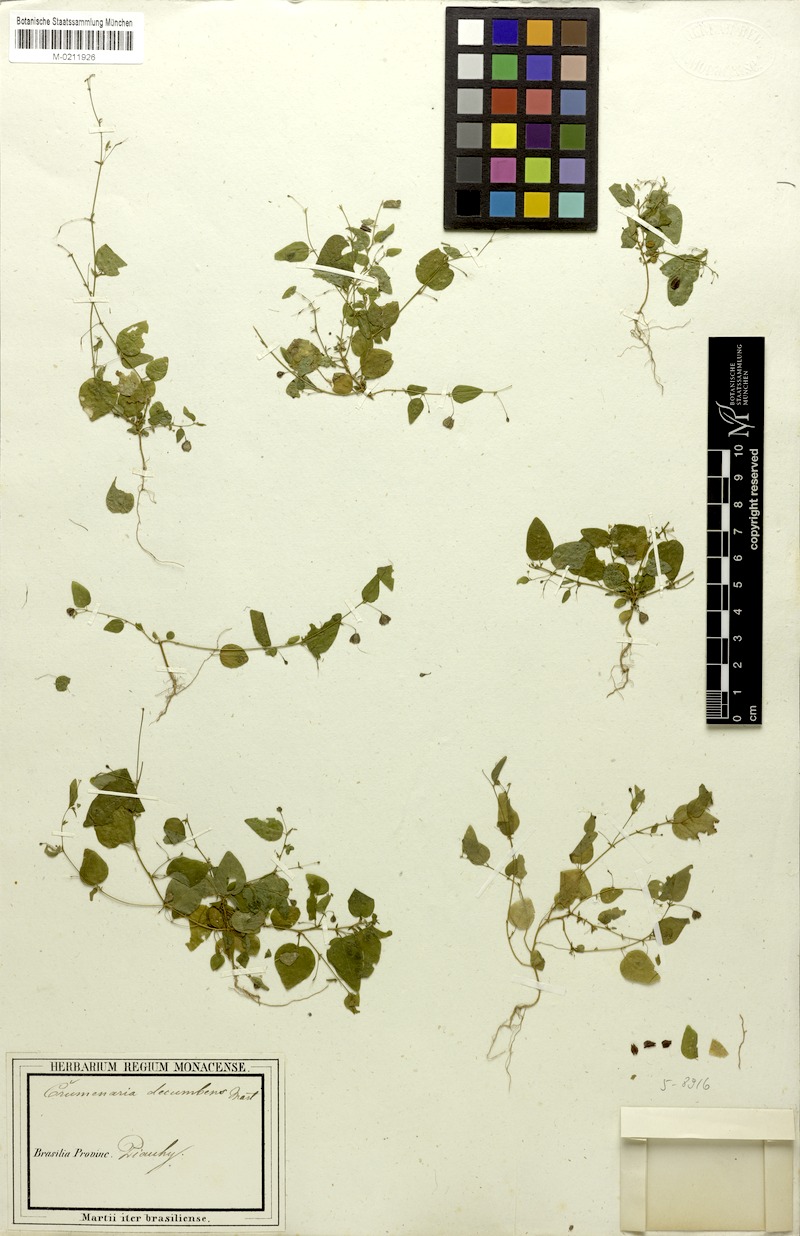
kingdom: Plantae
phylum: Tracheophyta
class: Magnoliopsida
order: Rosales
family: Rhamnaceae
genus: Crumenaria
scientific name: Crumenaria decumbens
